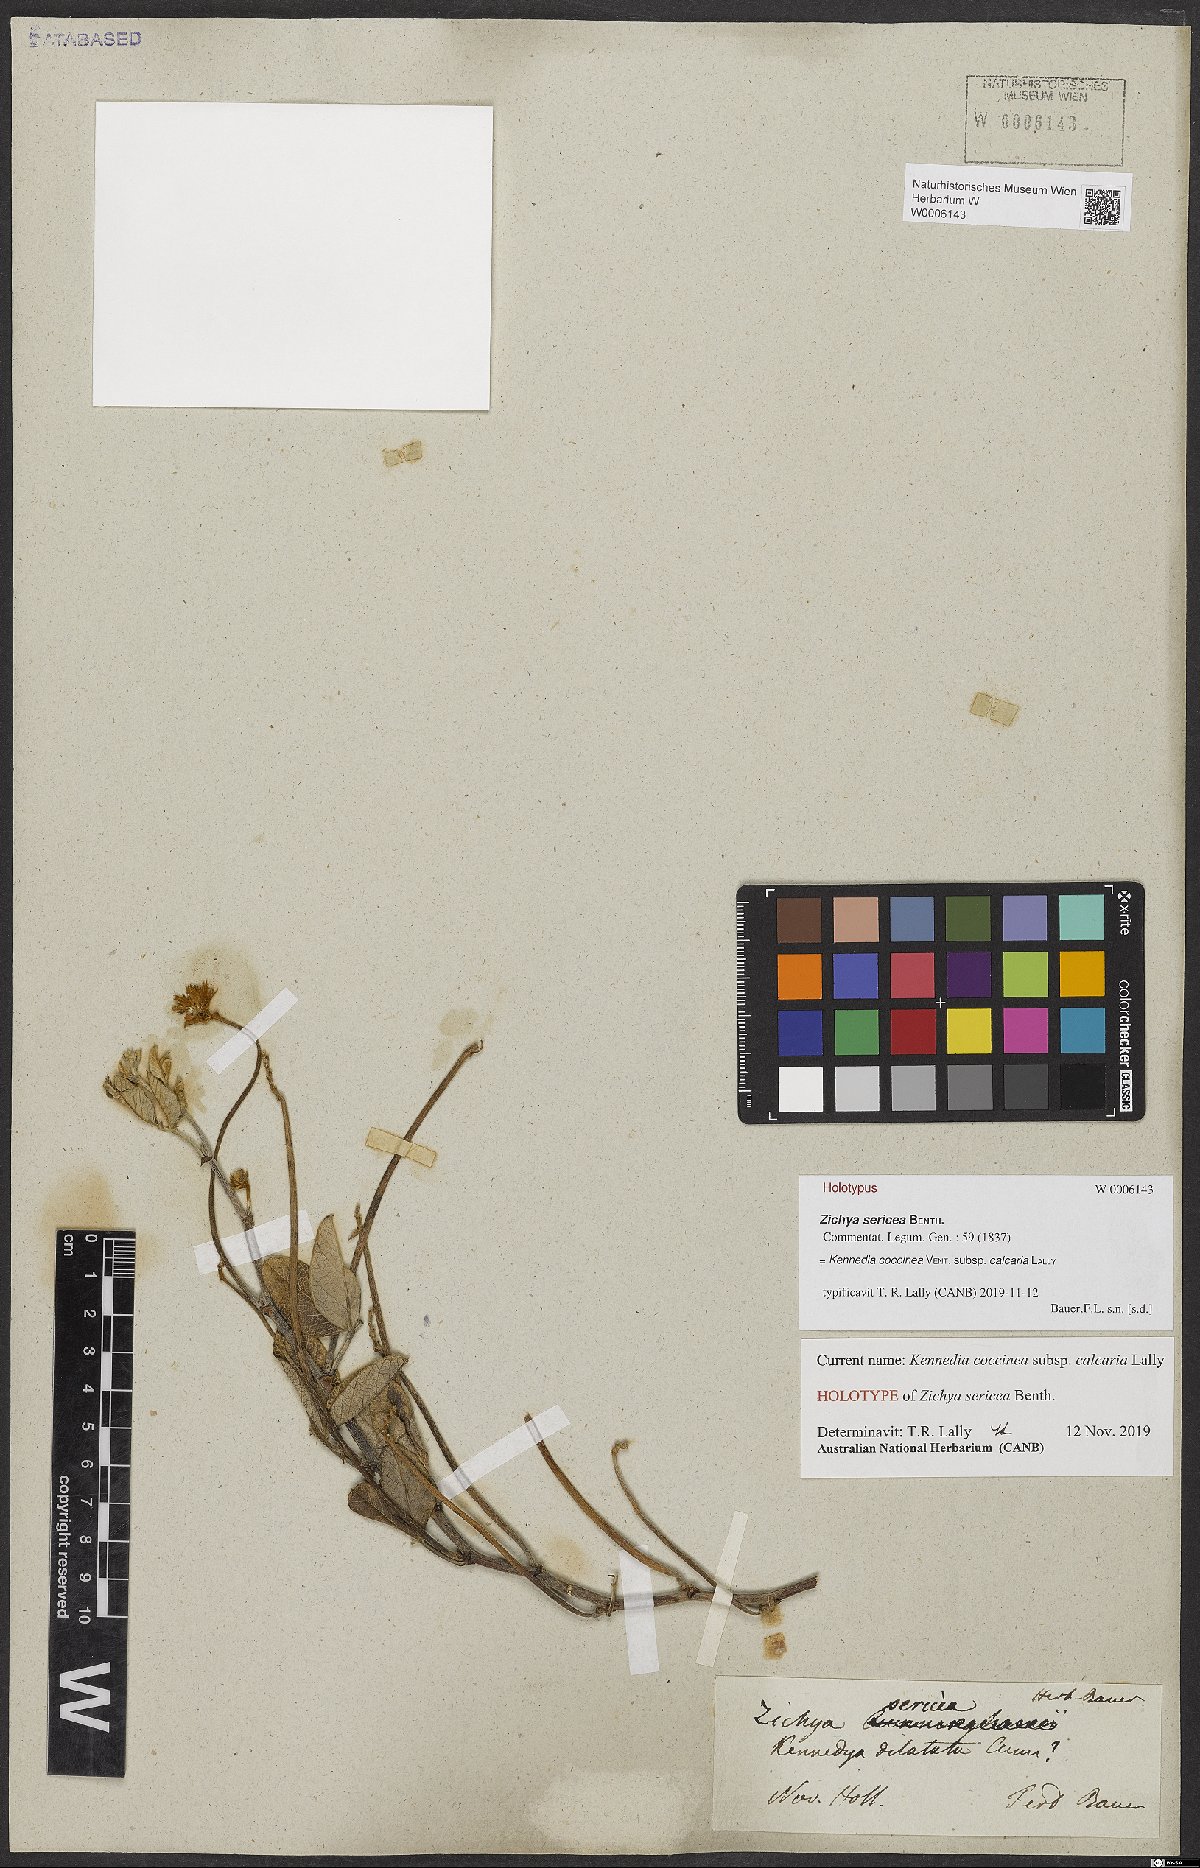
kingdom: Plantae
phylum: Tracheophyta
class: Magnoliopsida
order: Fabales
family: Fabaceae
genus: Kennedia
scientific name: Kennedia coccinea
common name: Coralvine
